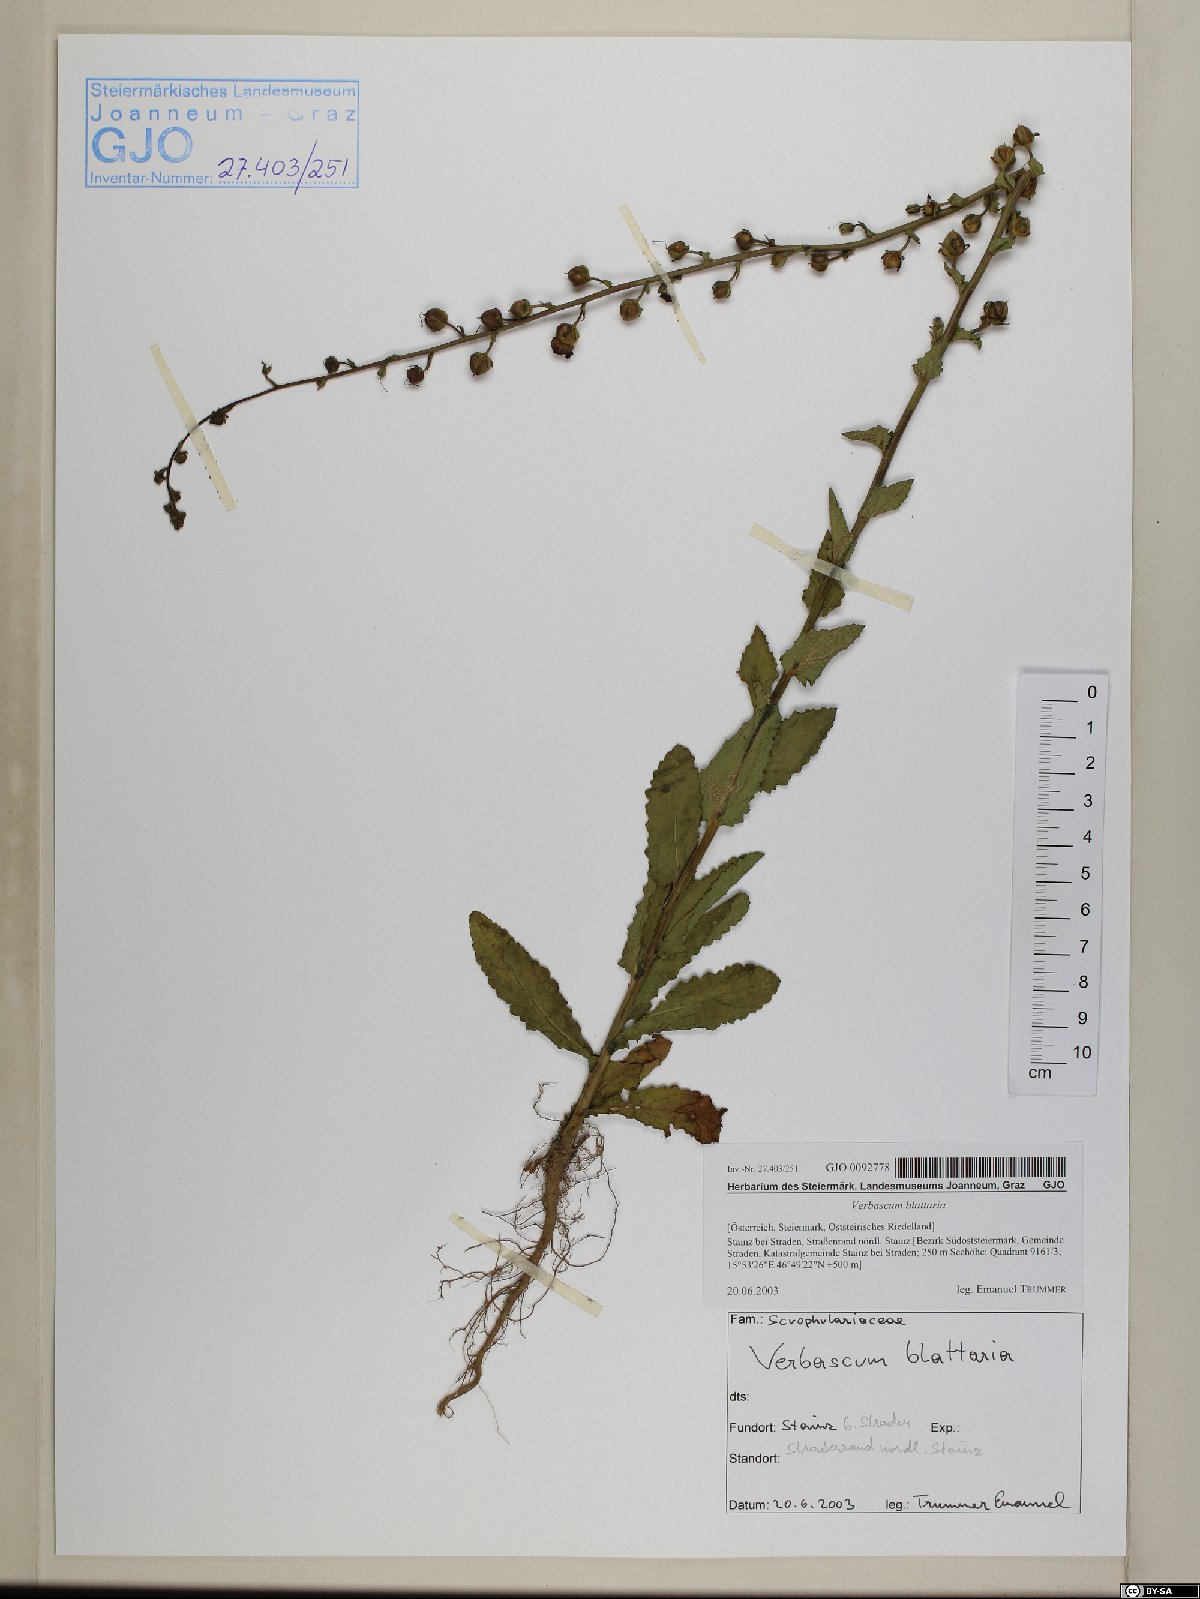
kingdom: Plantae
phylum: Tracheophyta
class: Magnoliopsida
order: Lamiales
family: Scrophulariaceae
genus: Verbascum
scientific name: Verbascum blattaria
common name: Moth mullein
